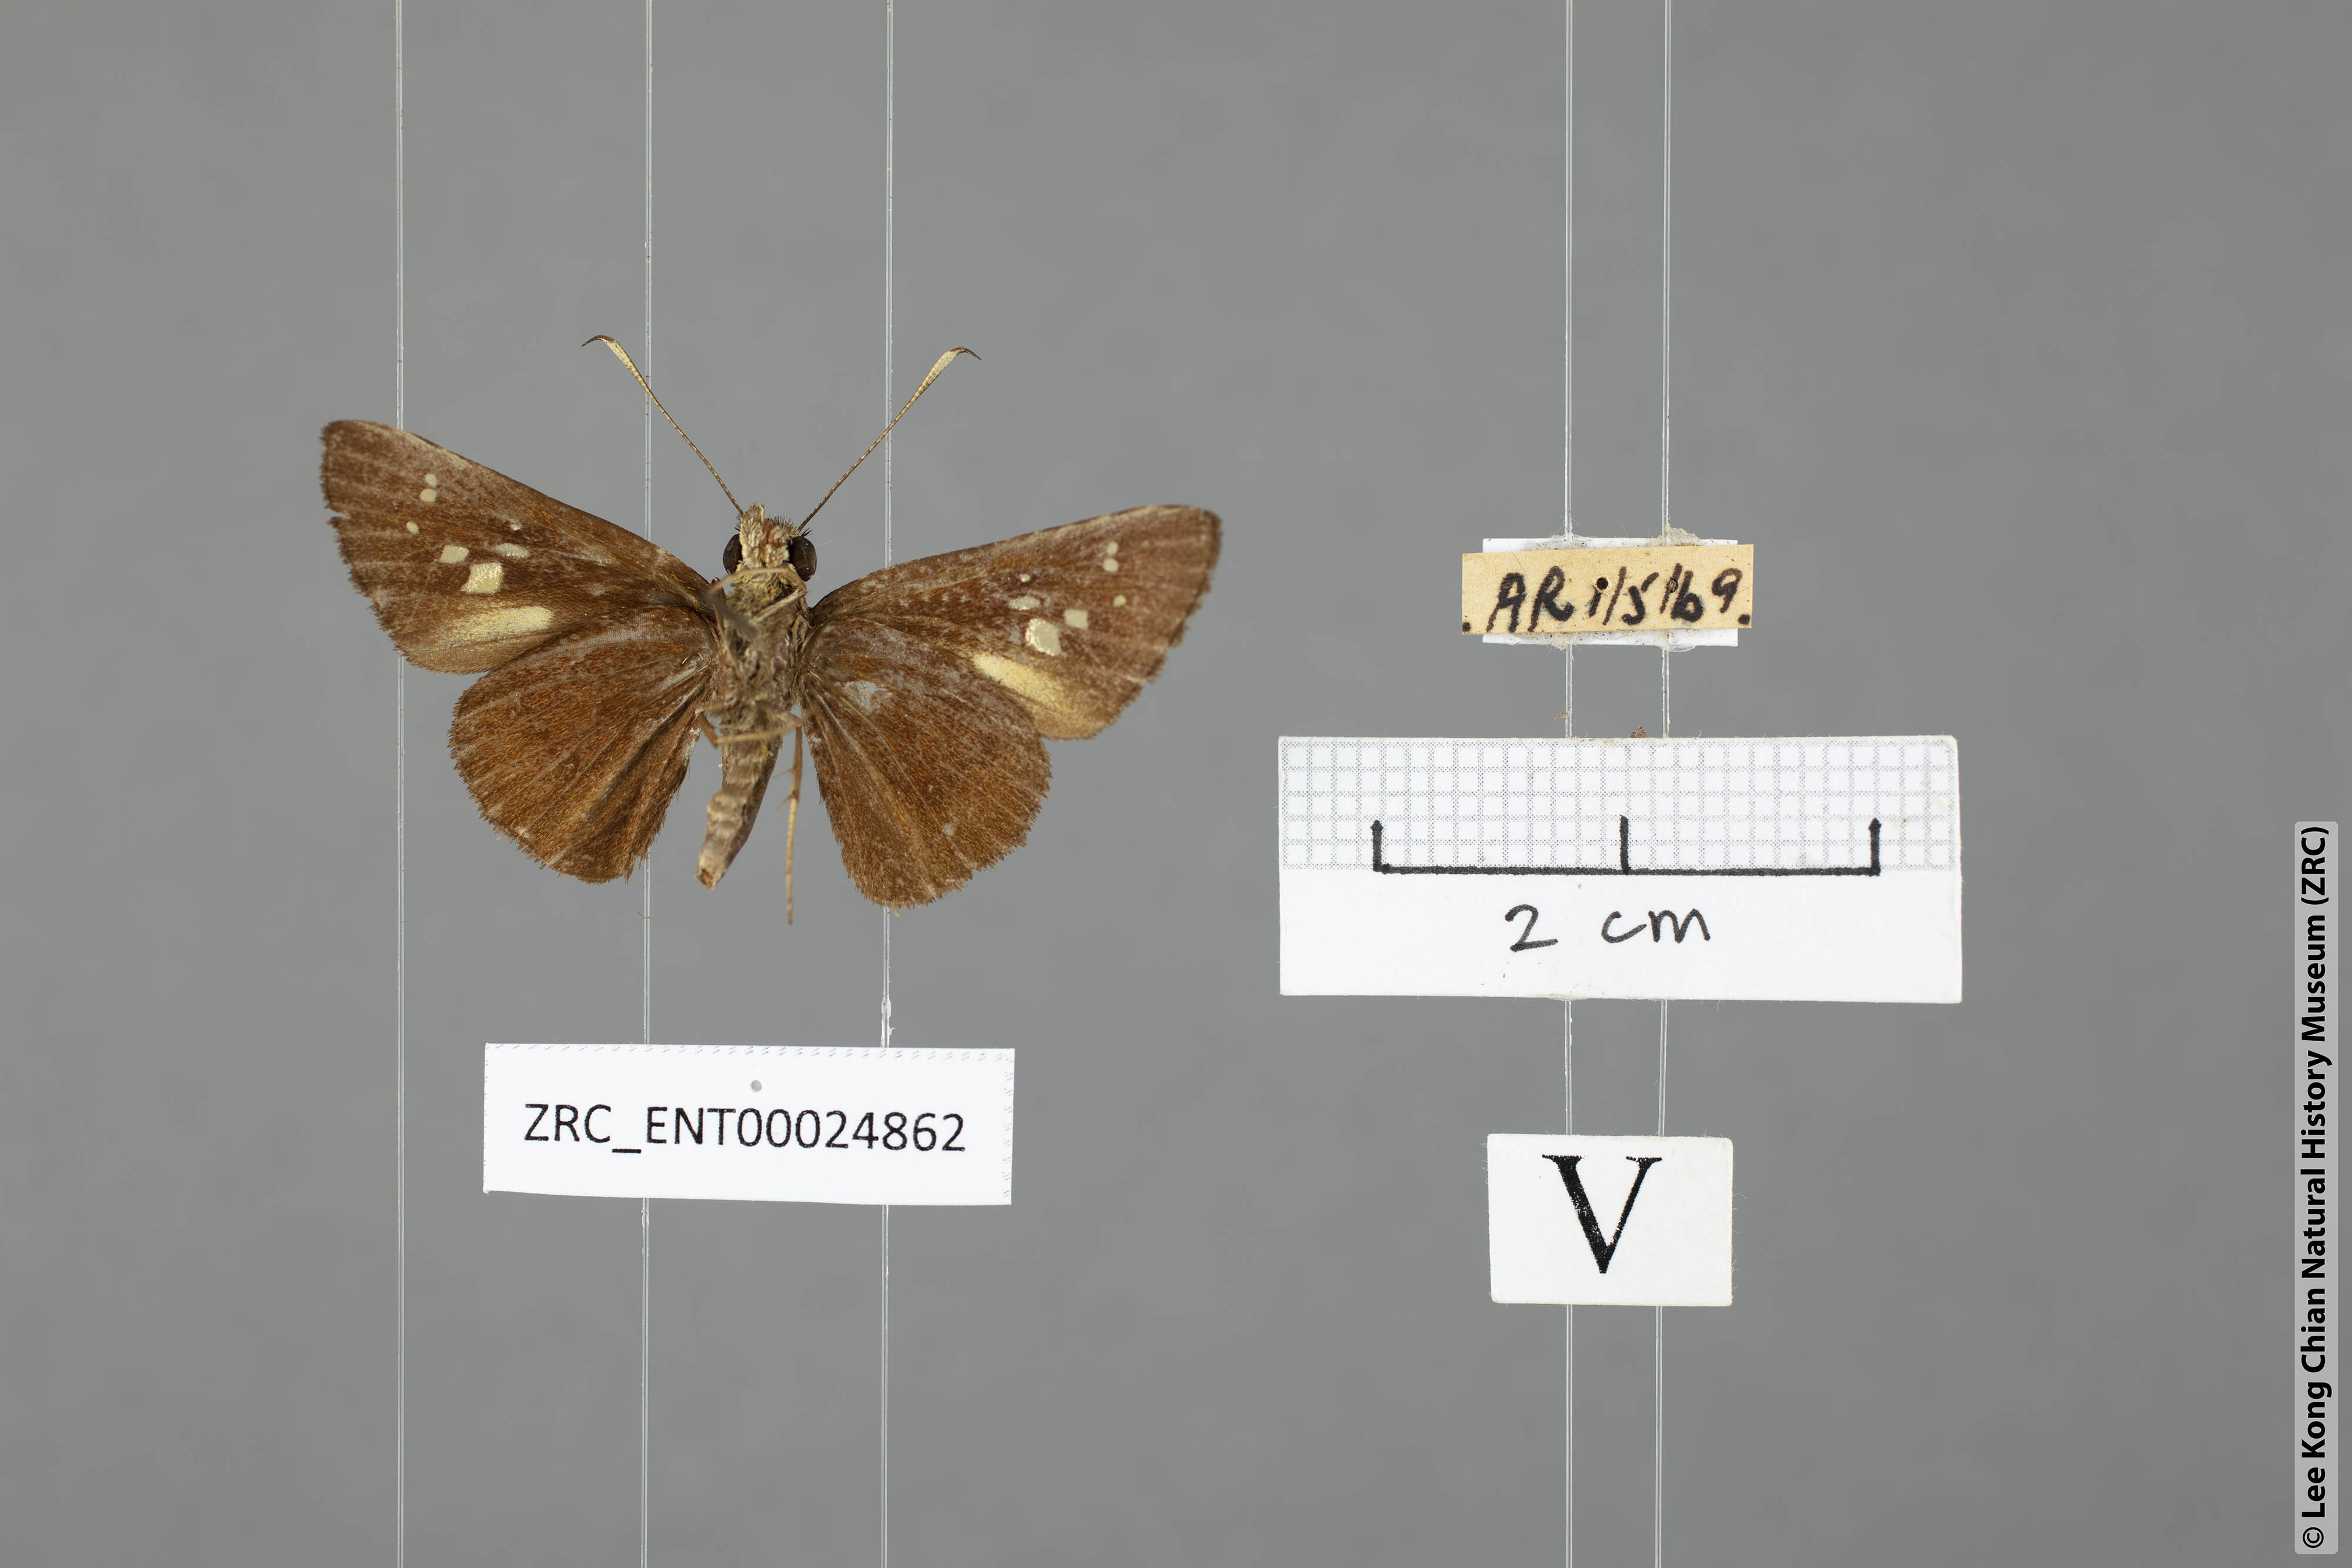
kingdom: Animalia
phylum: Arthropoda
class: Insecta
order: Lepidoptera
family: Hesperiidae
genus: Isma
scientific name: Isma miosticta
